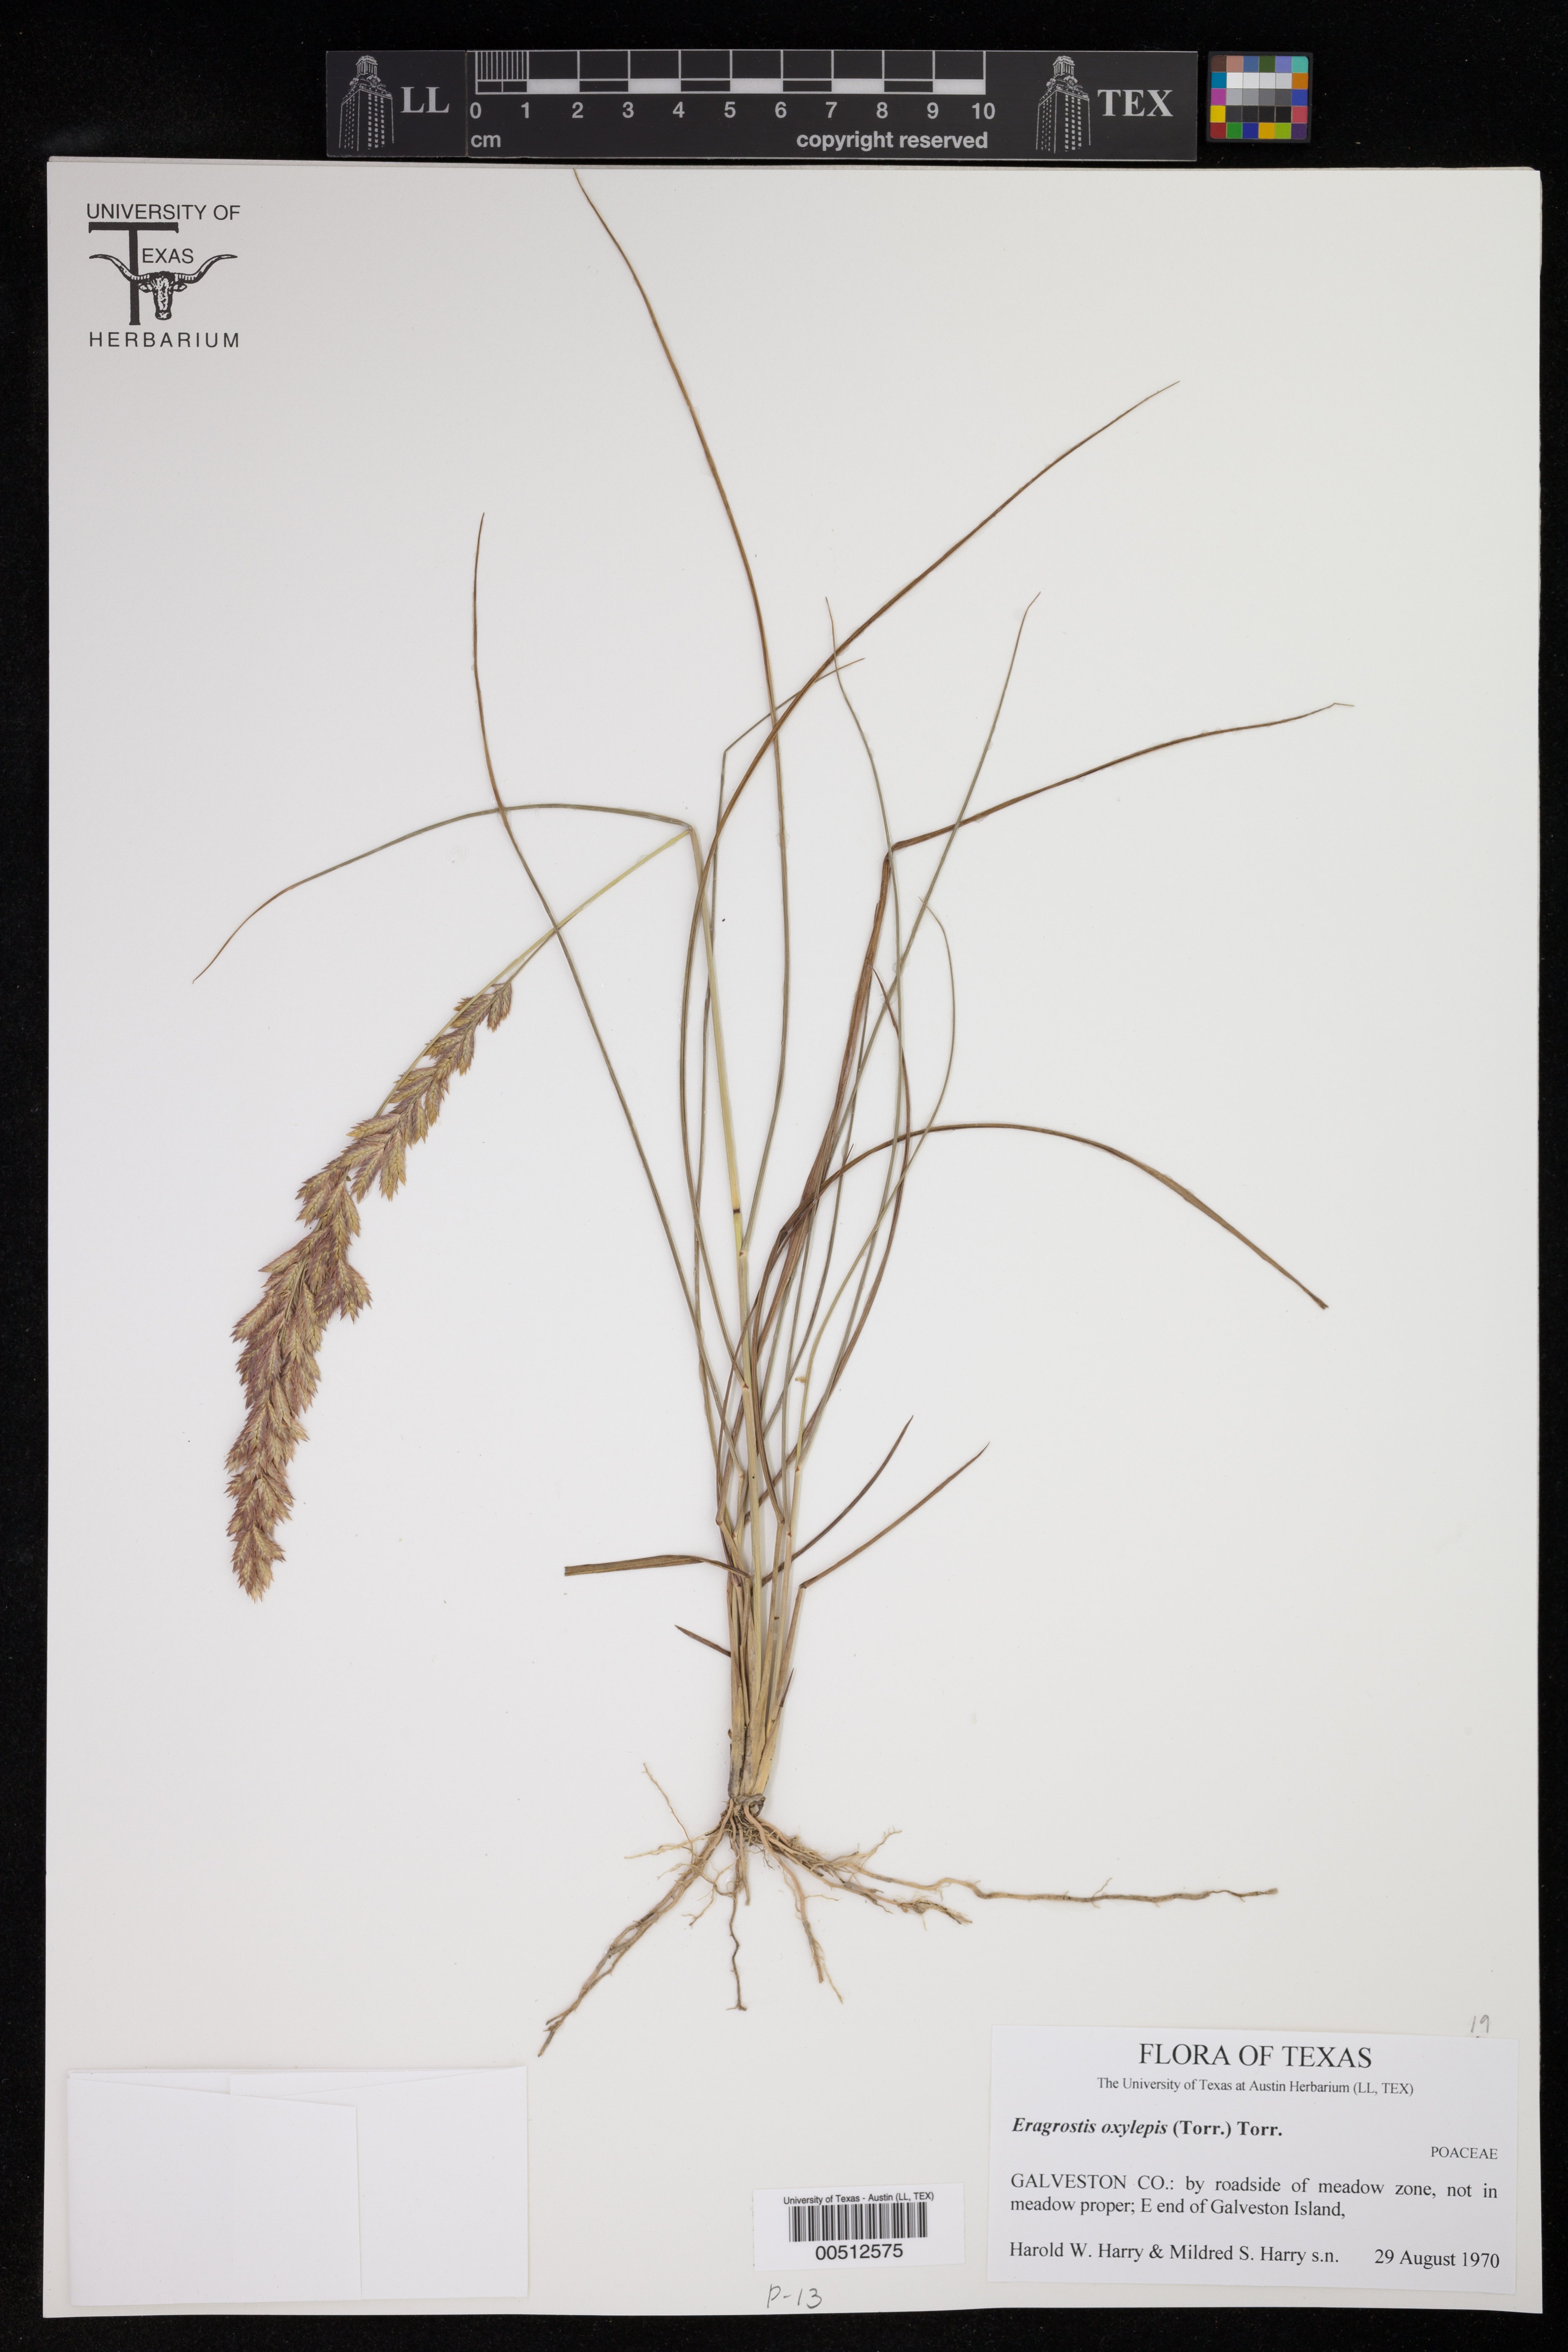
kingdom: Plantae
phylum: Tracheophyta
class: Liliopsida
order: Poales
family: Poaceae
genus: Eragrostis
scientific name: Eragrostis secundiflora
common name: Red love grass
